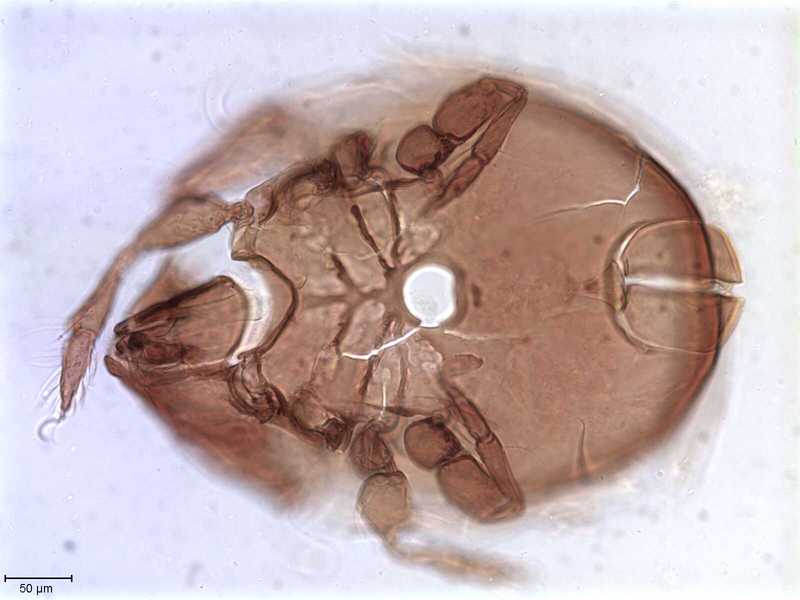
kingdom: Animalia
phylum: Arthropoda
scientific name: Arthropoda
